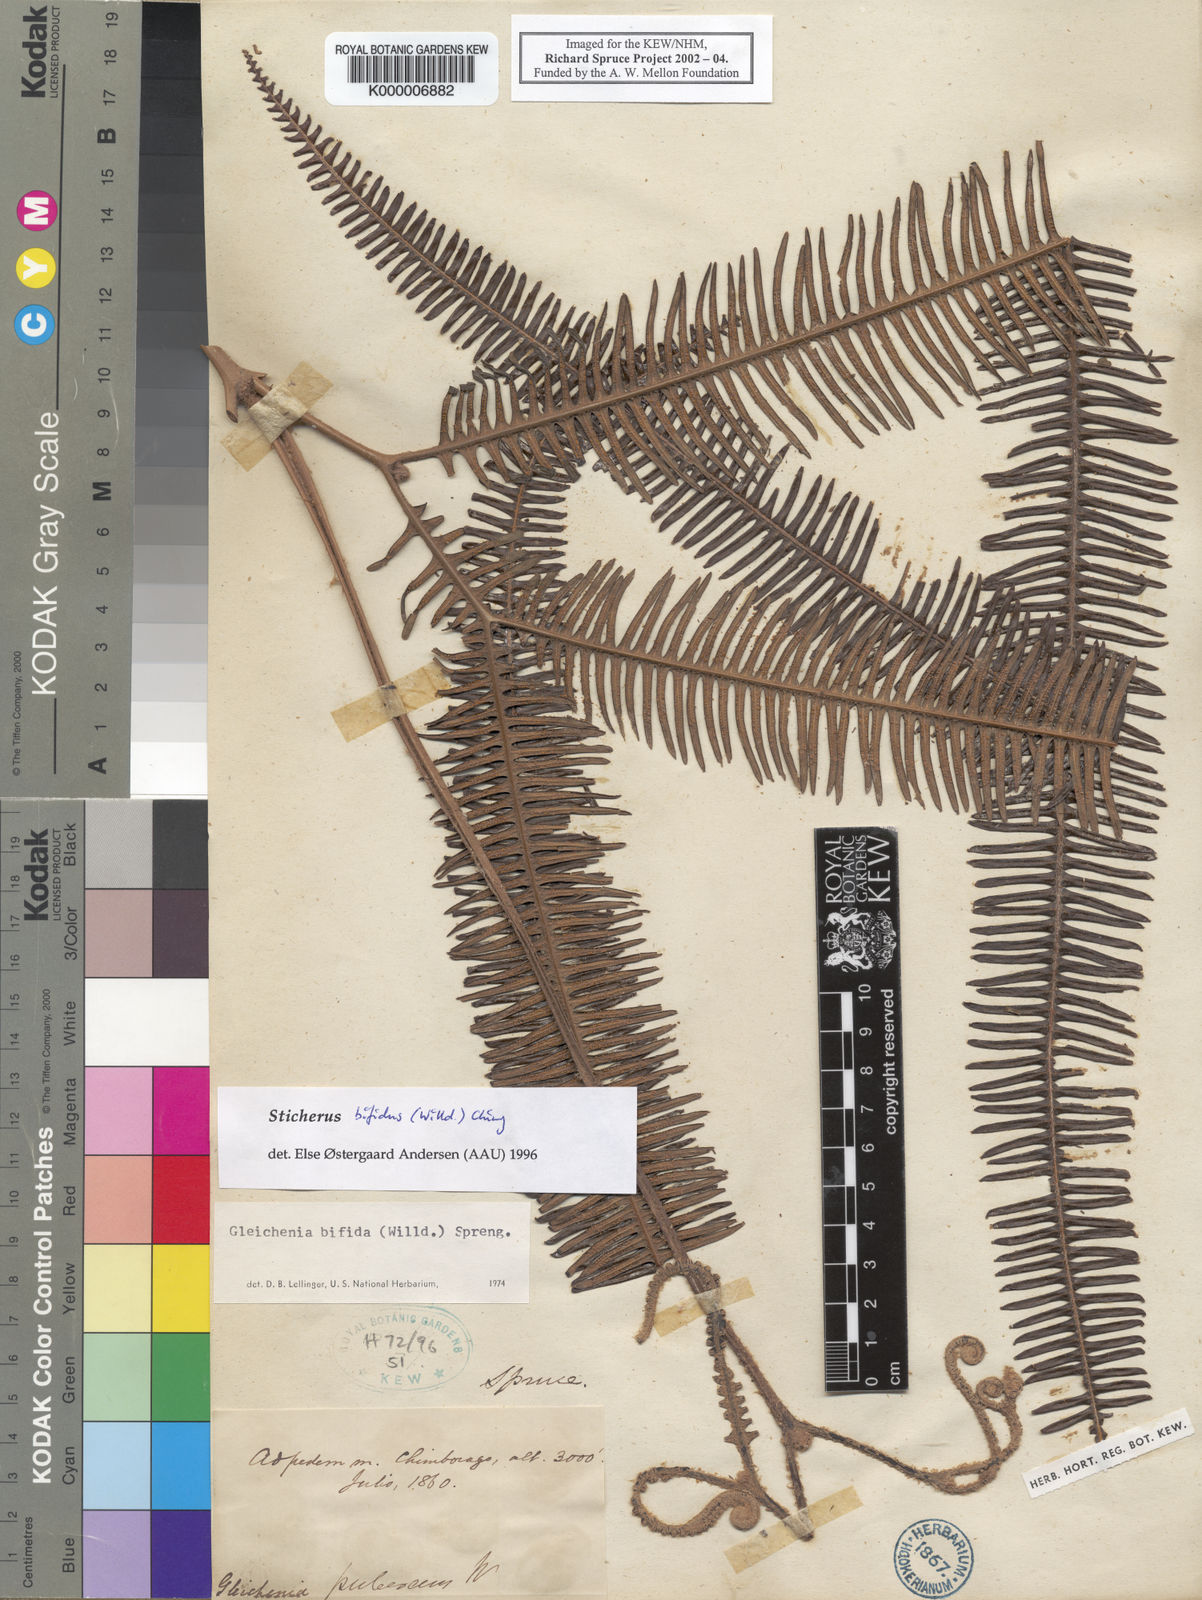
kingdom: Plantae
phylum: Tracheophyta
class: Polypodiopsida
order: Gleicheniales
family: Gleicheniaceae
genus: Sticherus
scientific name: Sticherus bifidus
